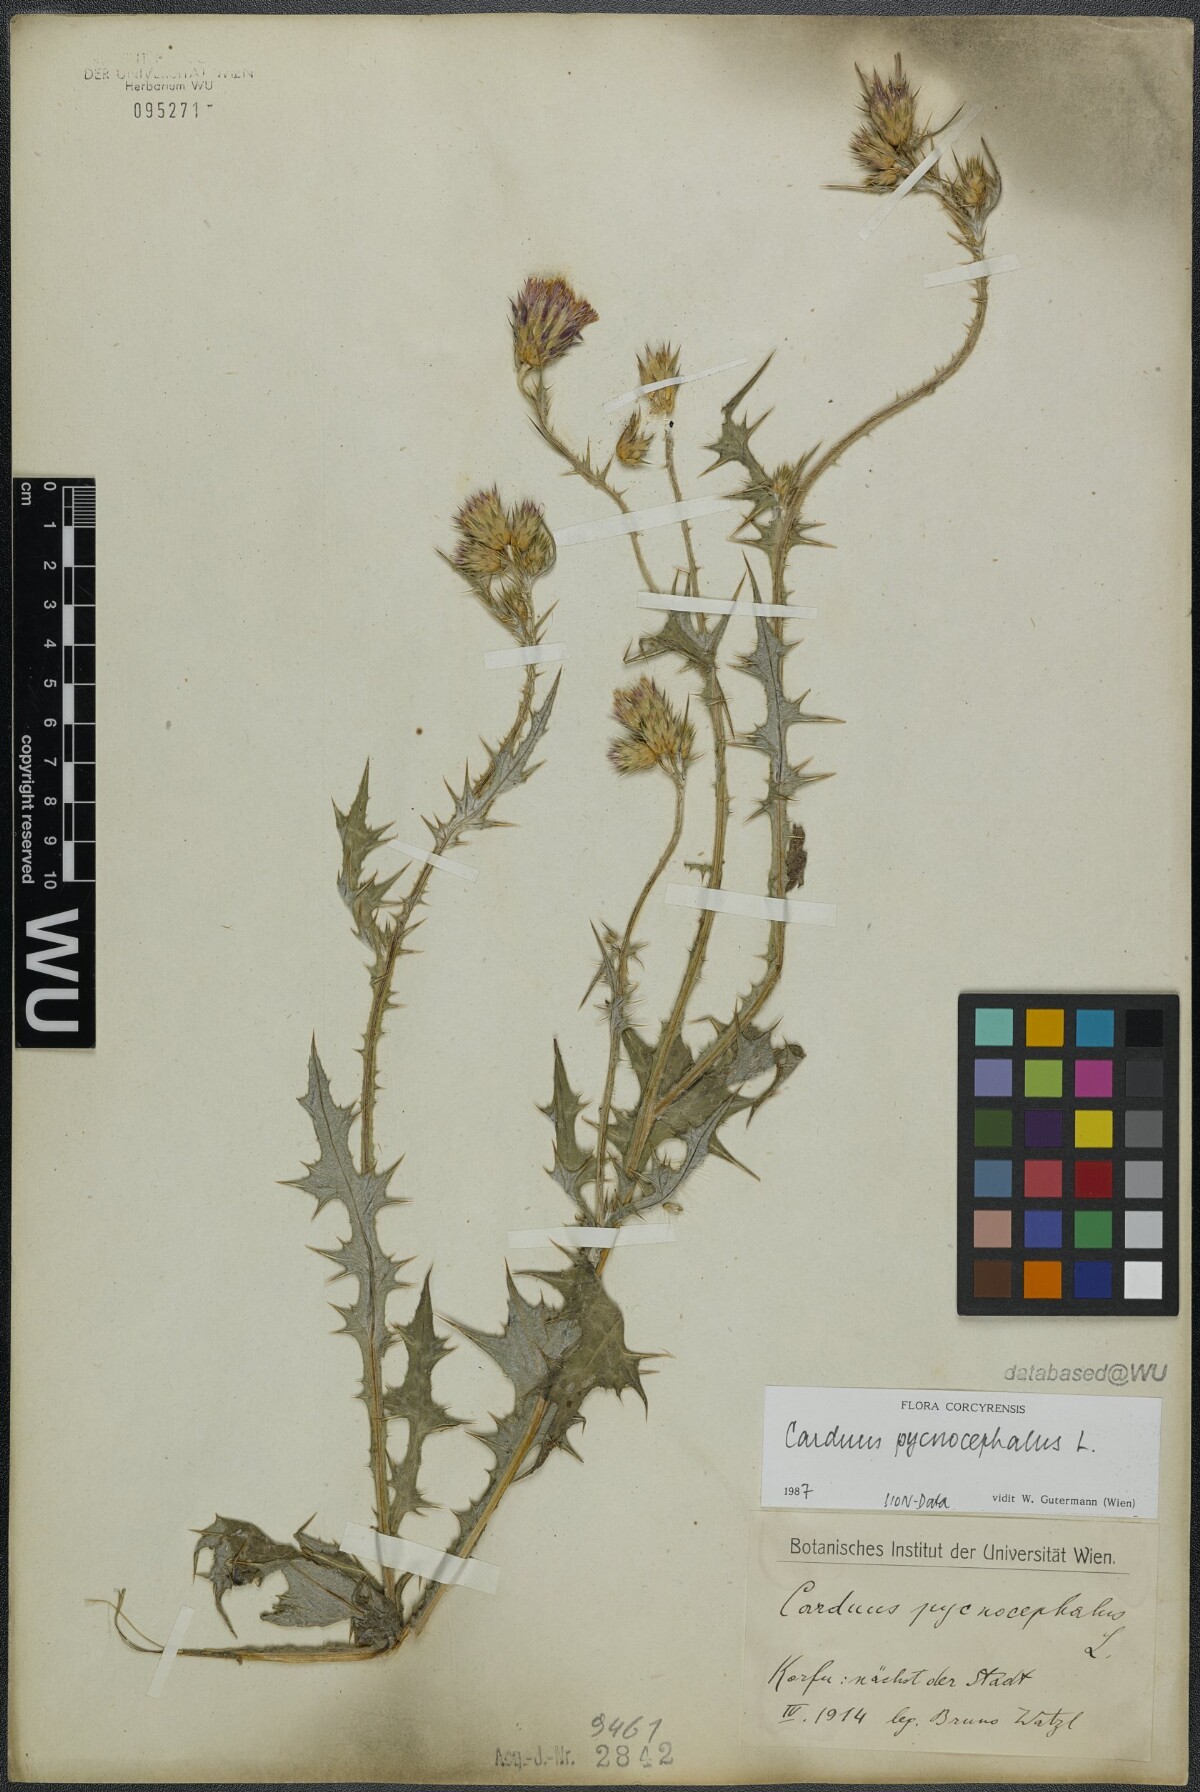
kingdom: Plantae
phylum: Tracheophyta
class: Magnoliopsida
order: Asterales
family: Asteraceae
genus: Carduus
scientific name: Carduus pycnocephalus
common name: Plymouth thistle
